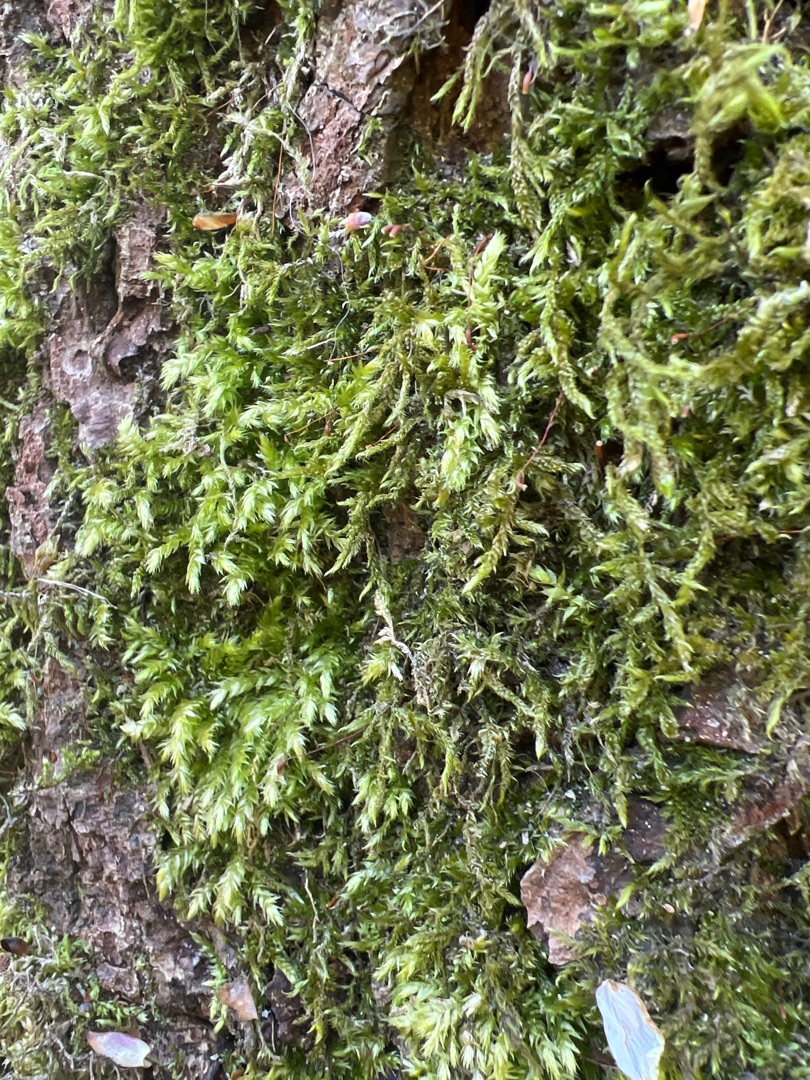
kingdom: Plantae
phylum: Bryophyta
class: Bryopsida
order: Hypnales
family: Brachytheciaceae
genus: Brachythecium
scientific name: Brachythecium rutabulum
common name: Almindelig kortkapsel
